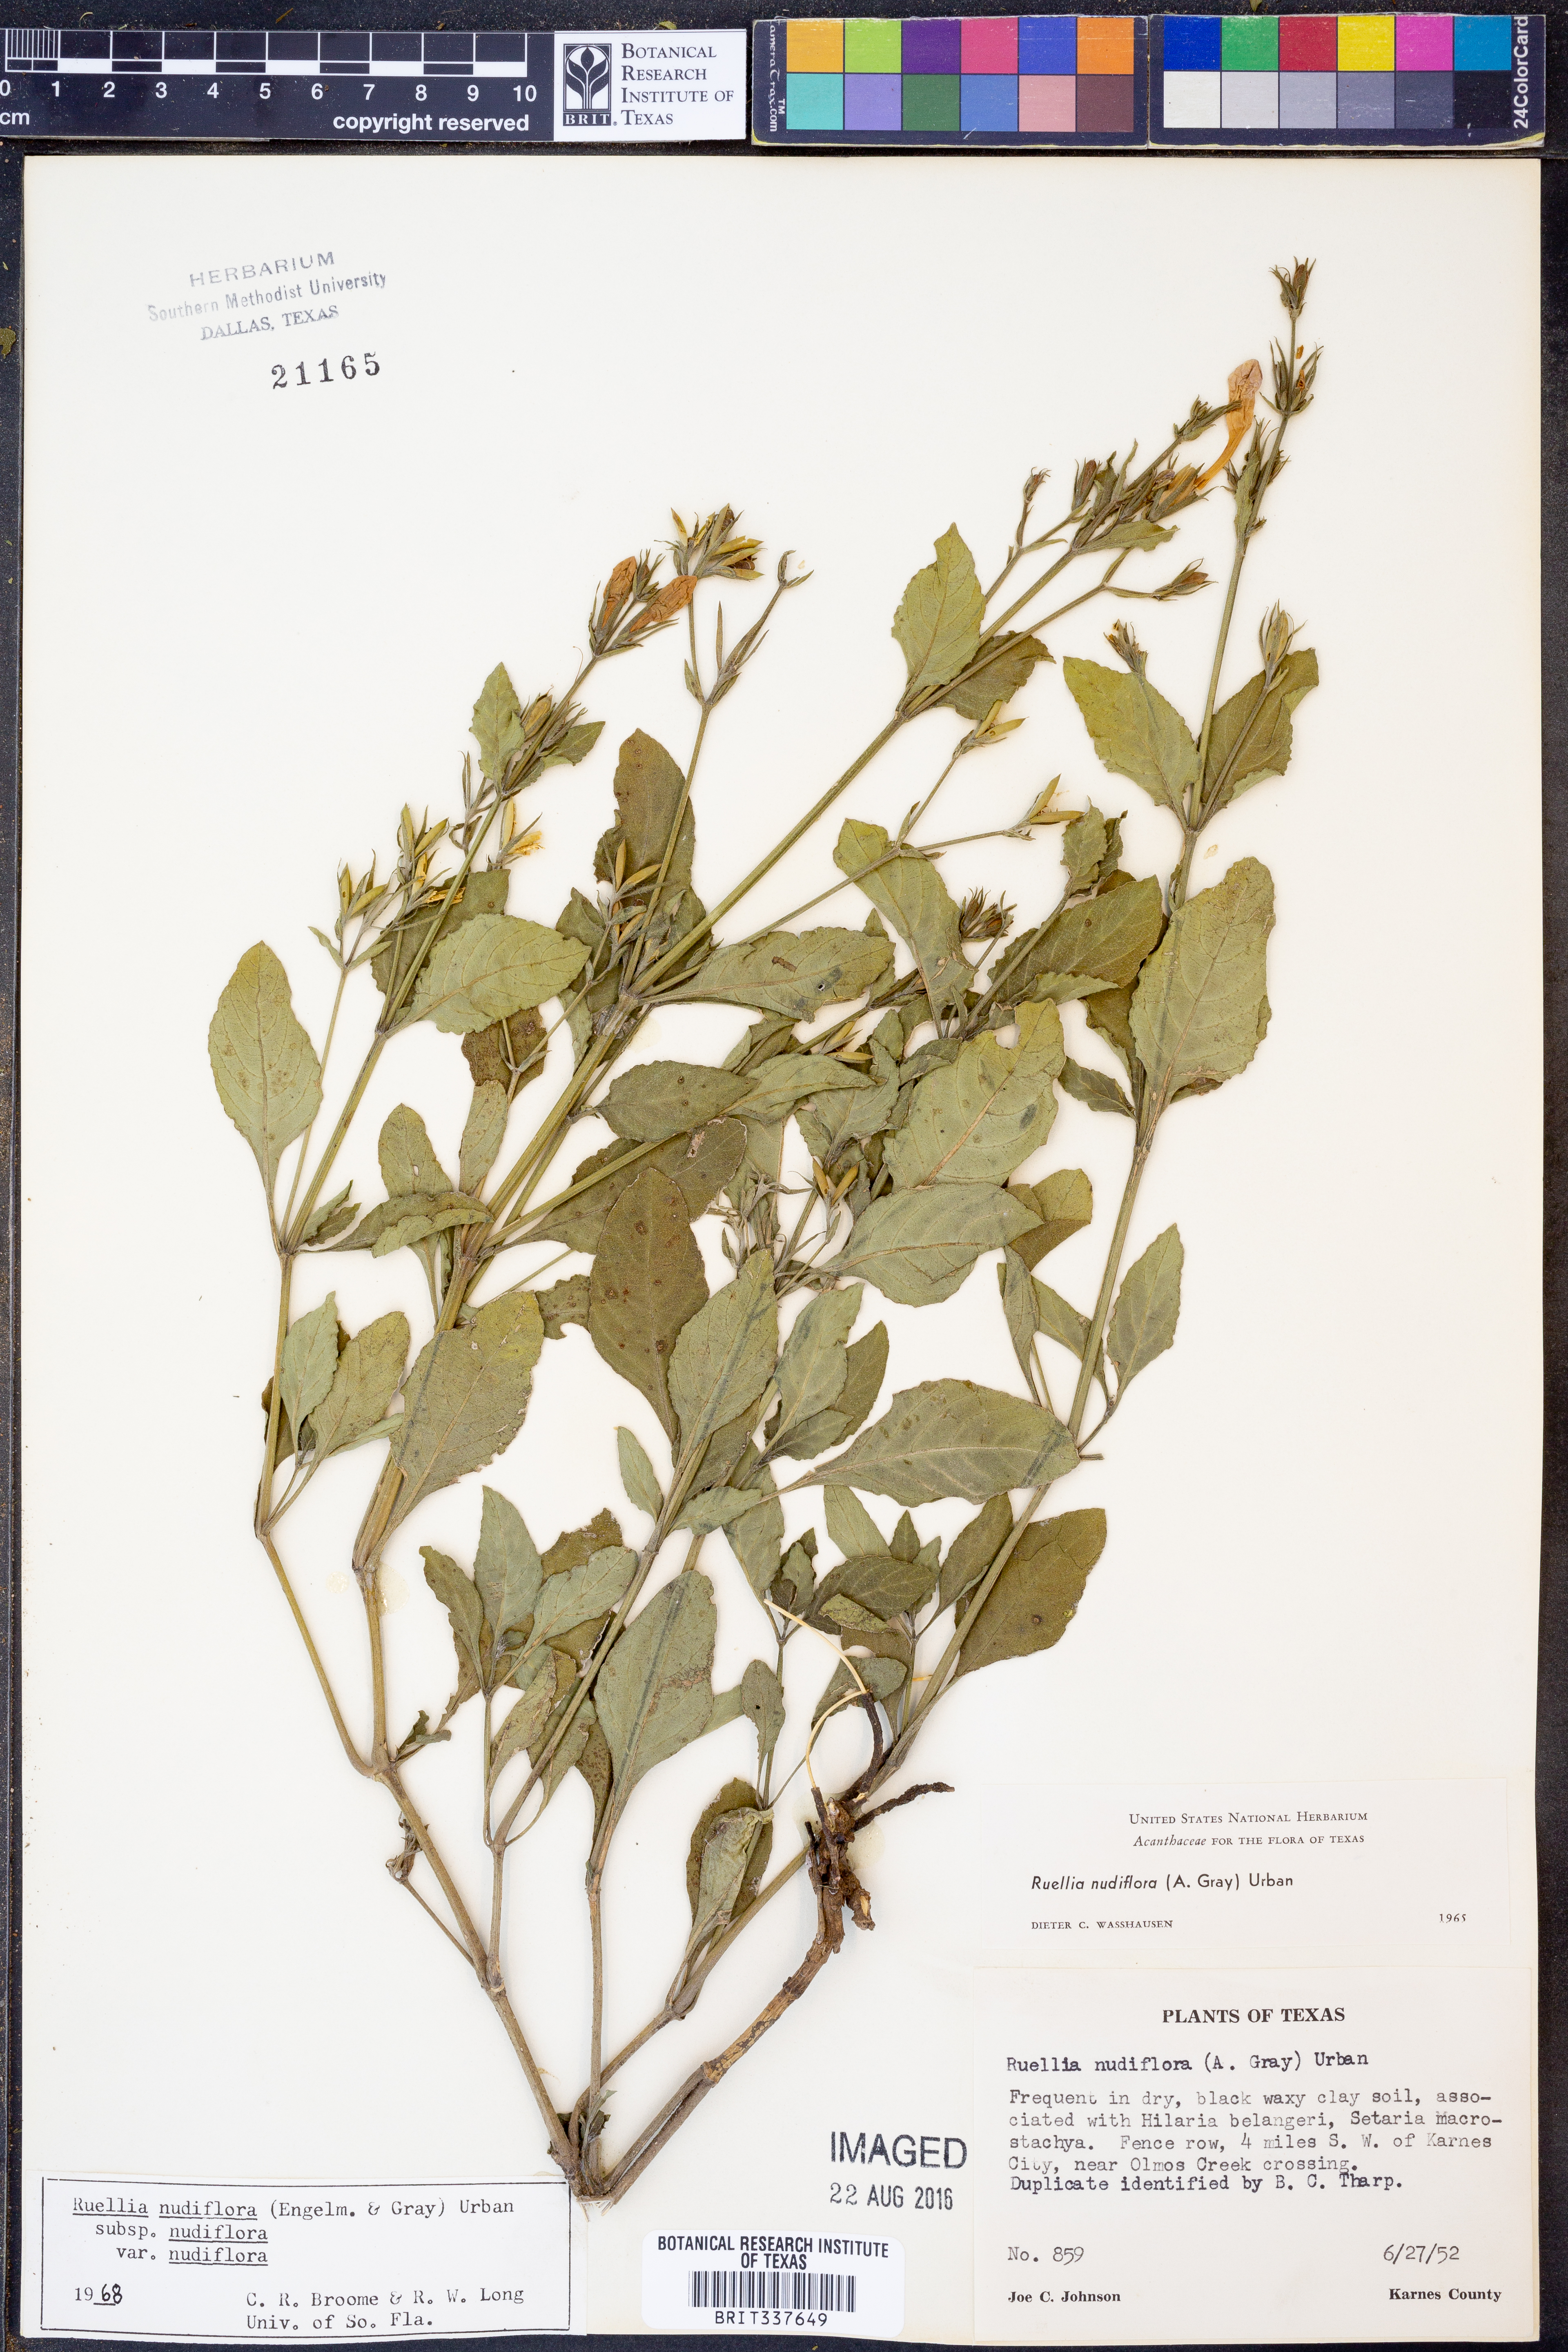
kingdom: Plantae
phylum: Tracheophyta
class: Magnoliopsida
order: Lamiales
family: Acanthaceae
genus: Ruellia
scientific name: Ruellia ciliatiflora
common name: Hairyflower wild petunia
